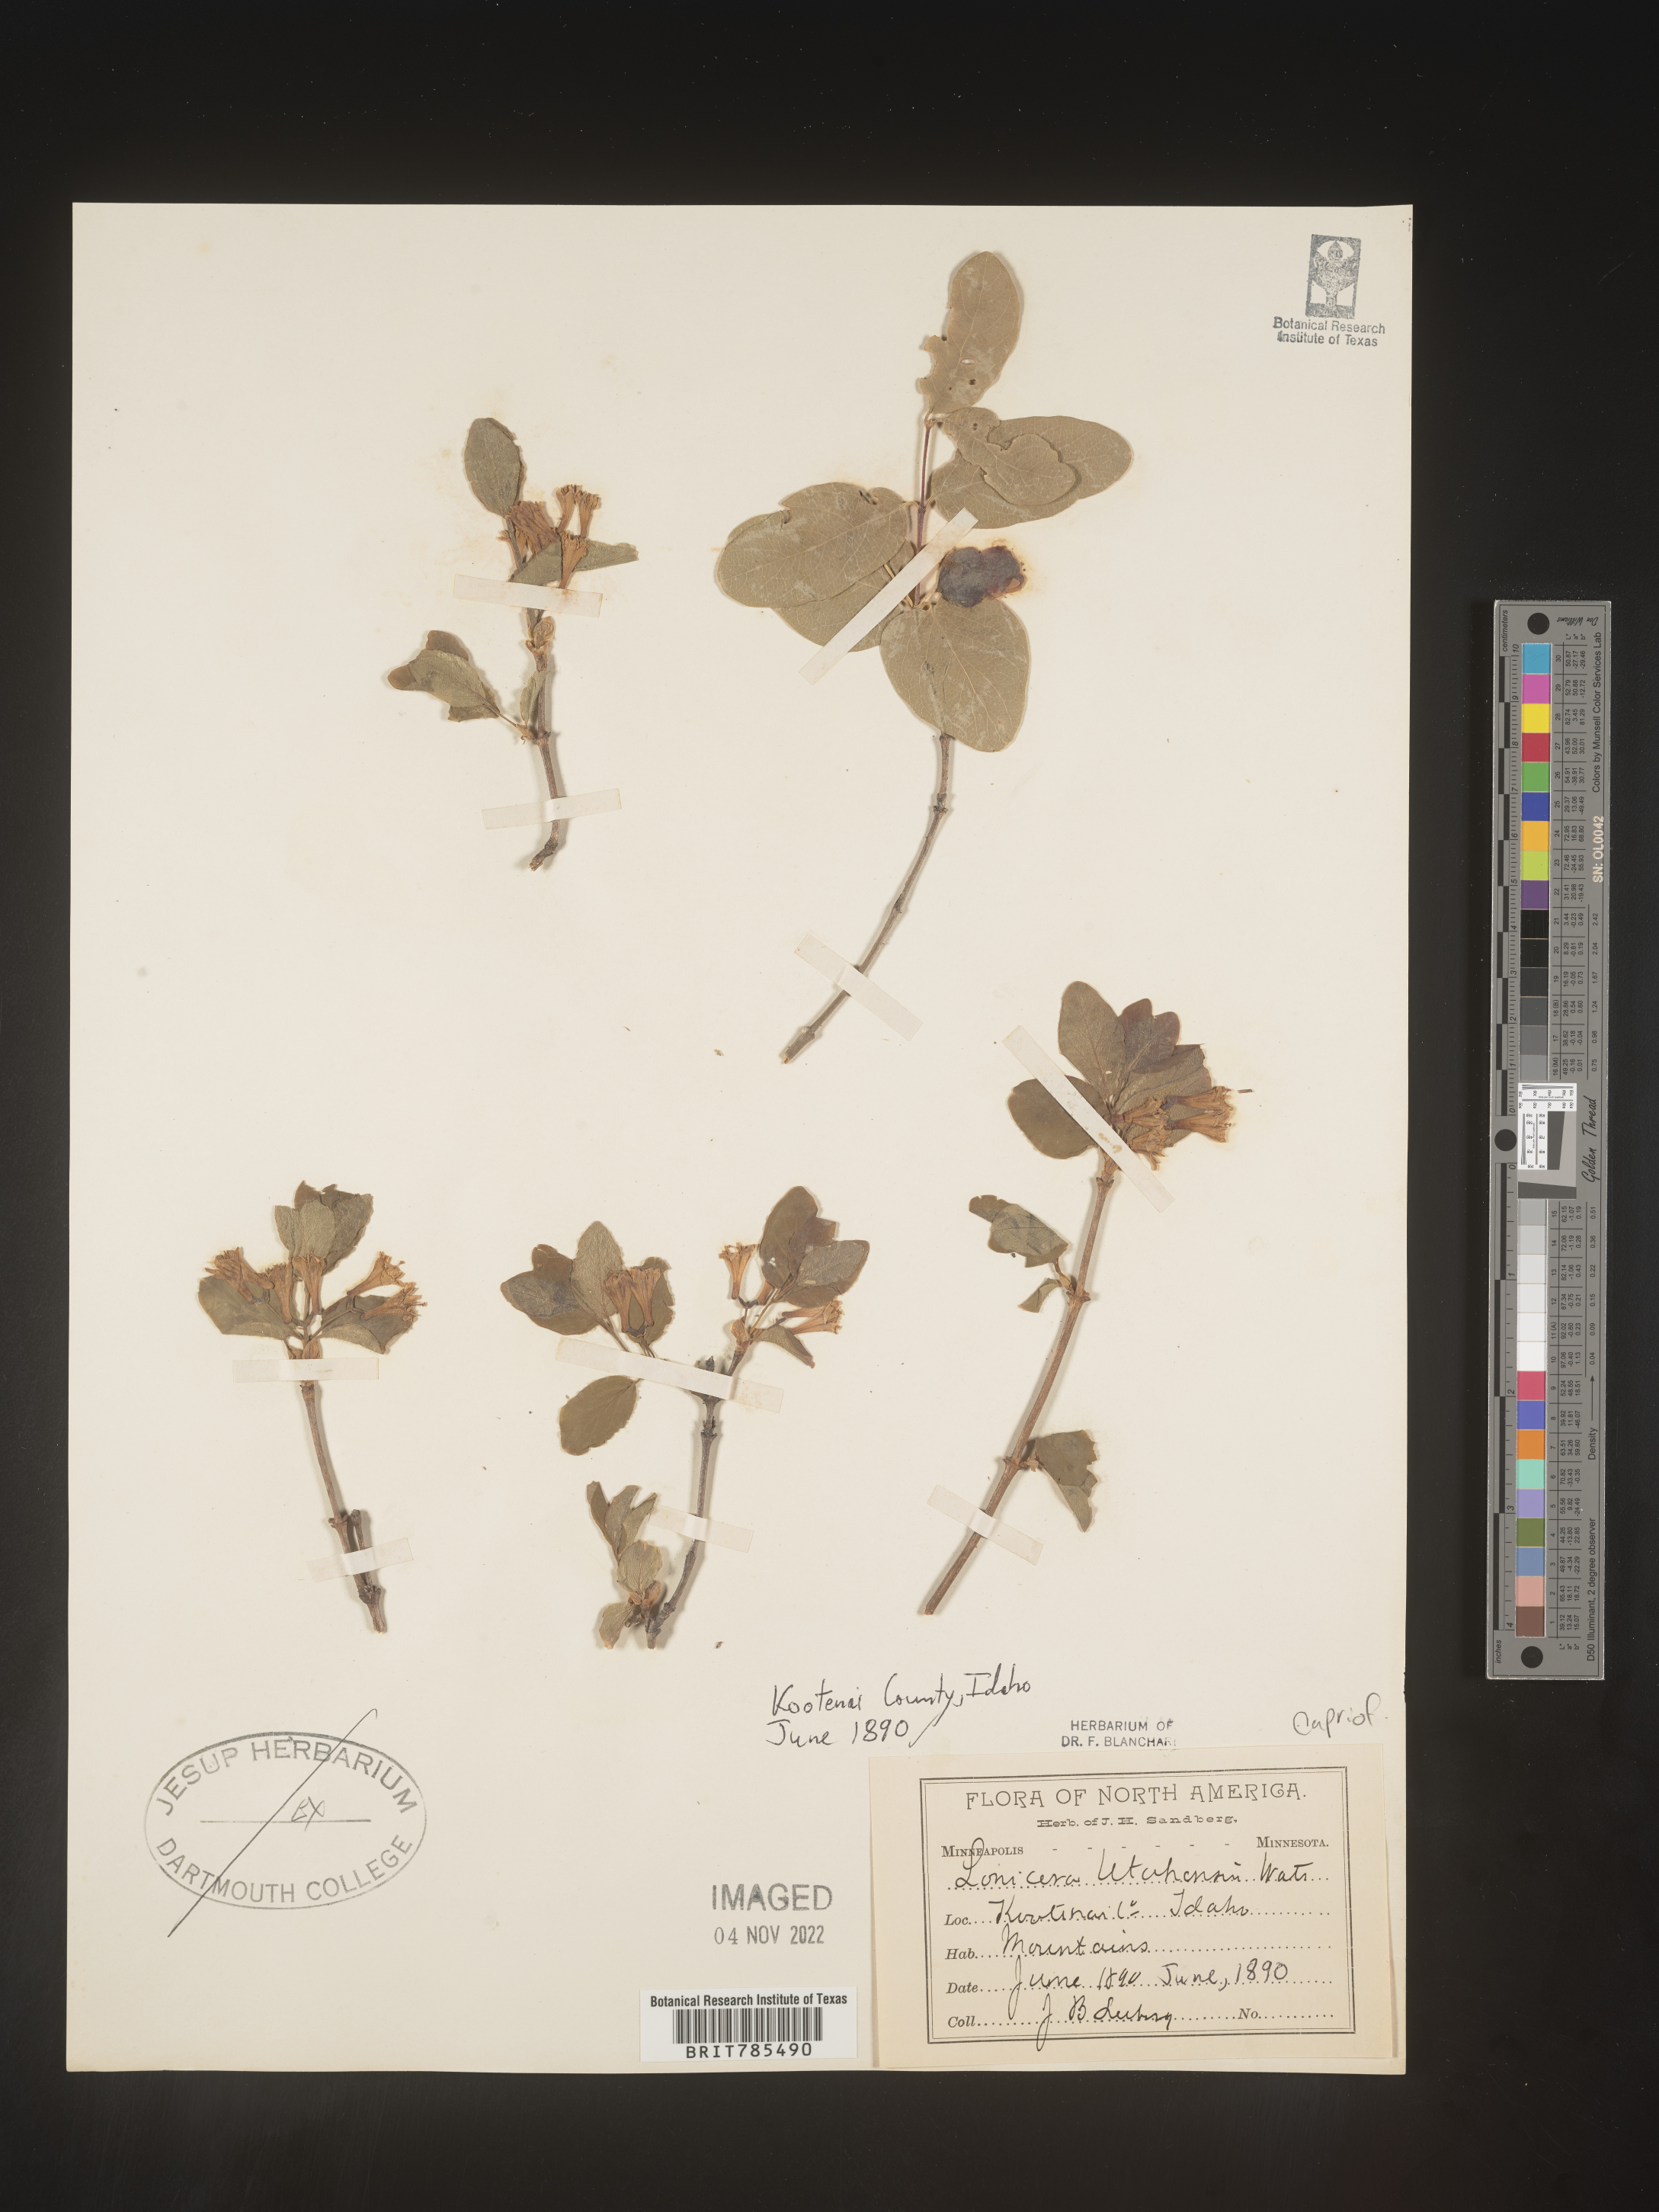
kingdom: Plantae
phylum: Tracheophyta
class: Magnoliopsida
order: Dipsacales
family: Caprifoliaceae
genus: Lonicera
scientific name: Lonicera utahensis
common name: Utah honeysuckle
